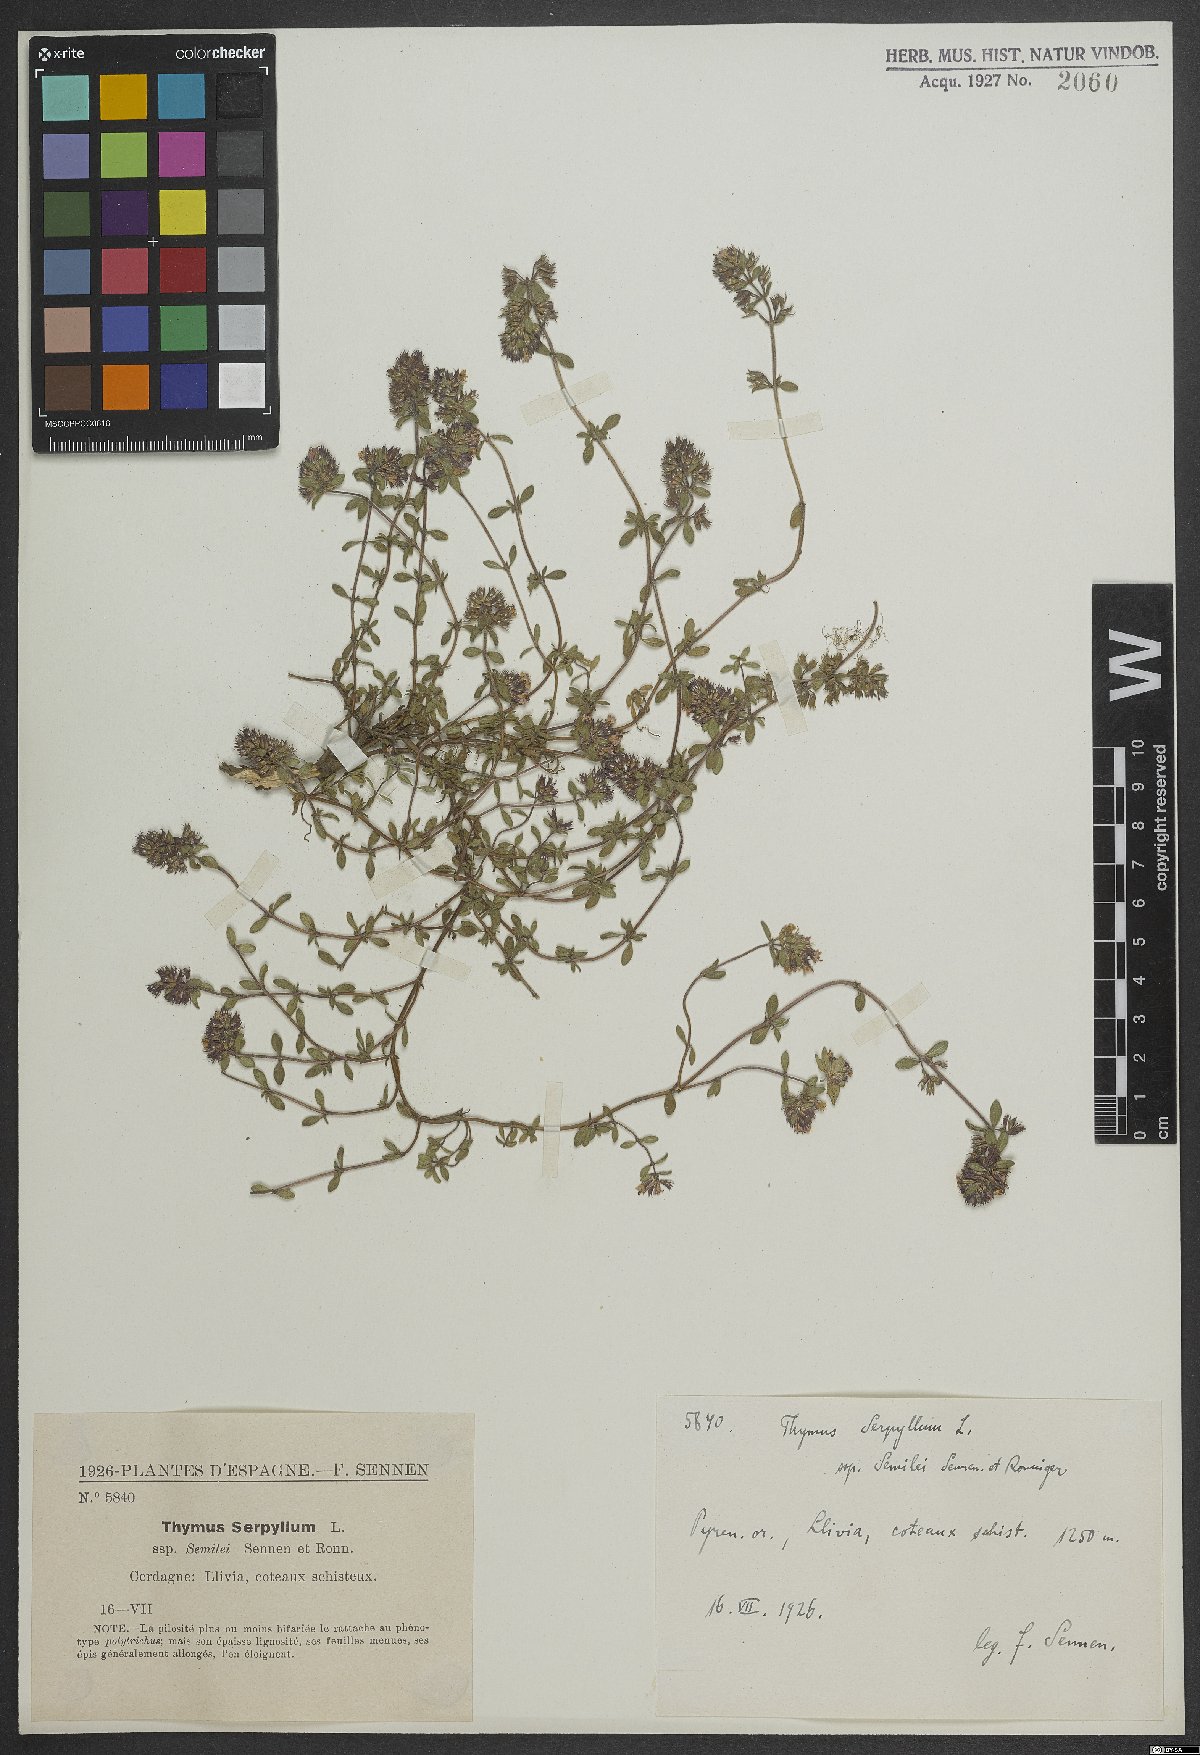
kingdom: Plantae
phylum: Tracheophyta
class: Magnoliopsida
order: Lamiales
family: Lamiaceae
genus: Thymus
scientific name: Thymus serpyllum
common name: Breckland thyme
